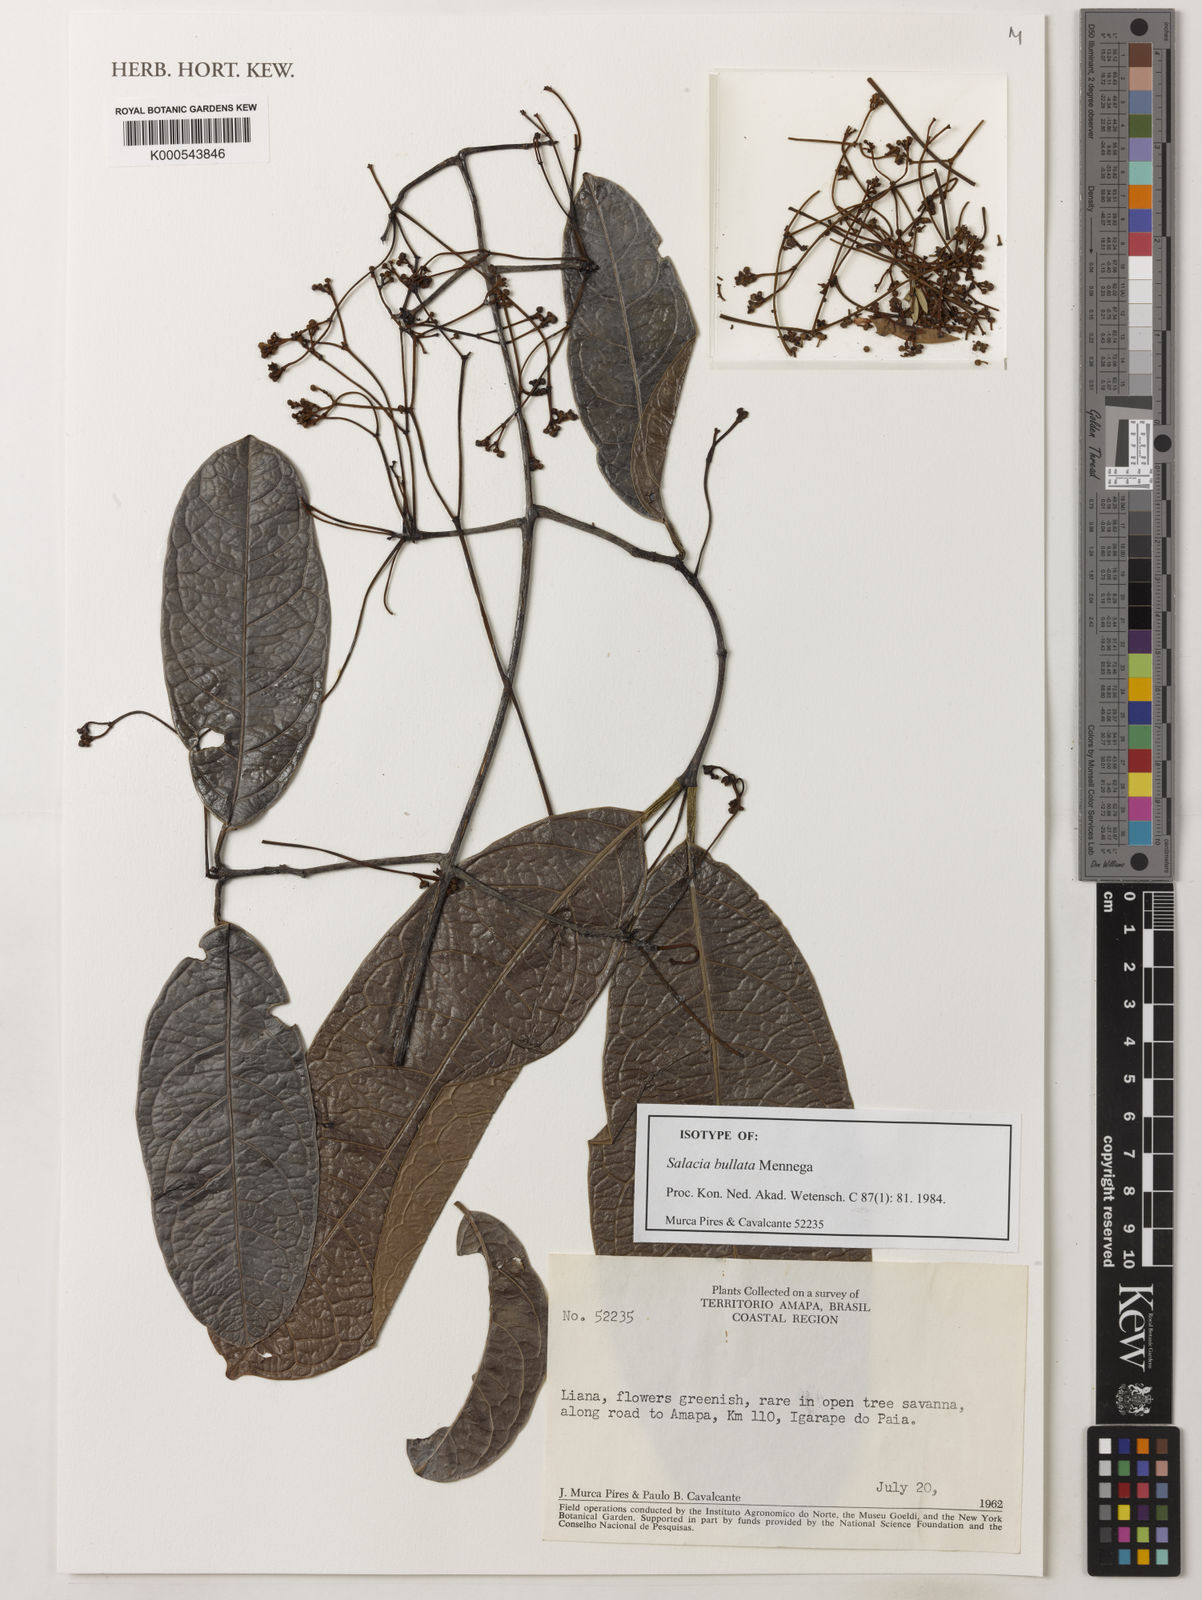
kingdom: Plantae
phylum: Tracheophyta
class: Magnoliopsida
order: Celastrales
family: Celastraceae
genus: Salacia
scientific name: Salacia amplectens
